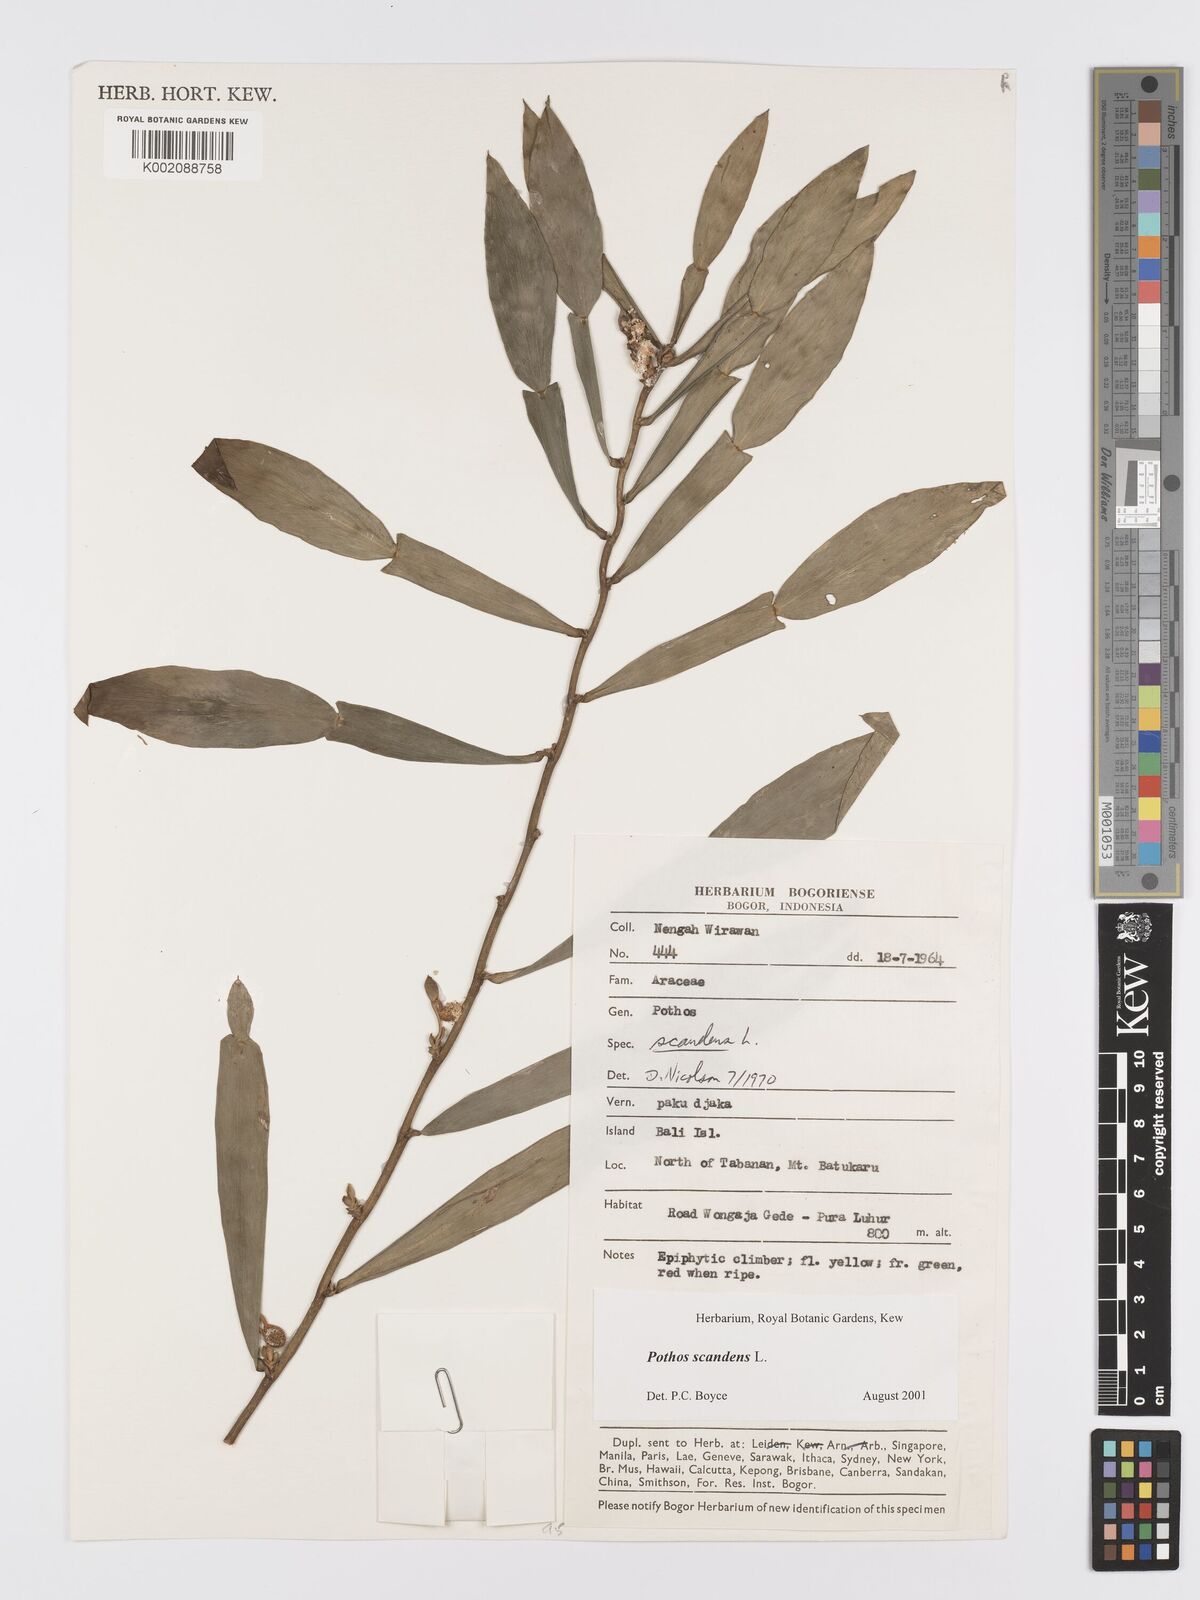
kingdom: Plantae
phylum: Tracheophyta
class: Liliopsida
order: Alismatales
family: Araceae
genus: Pothos
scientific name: Pothos scandens
